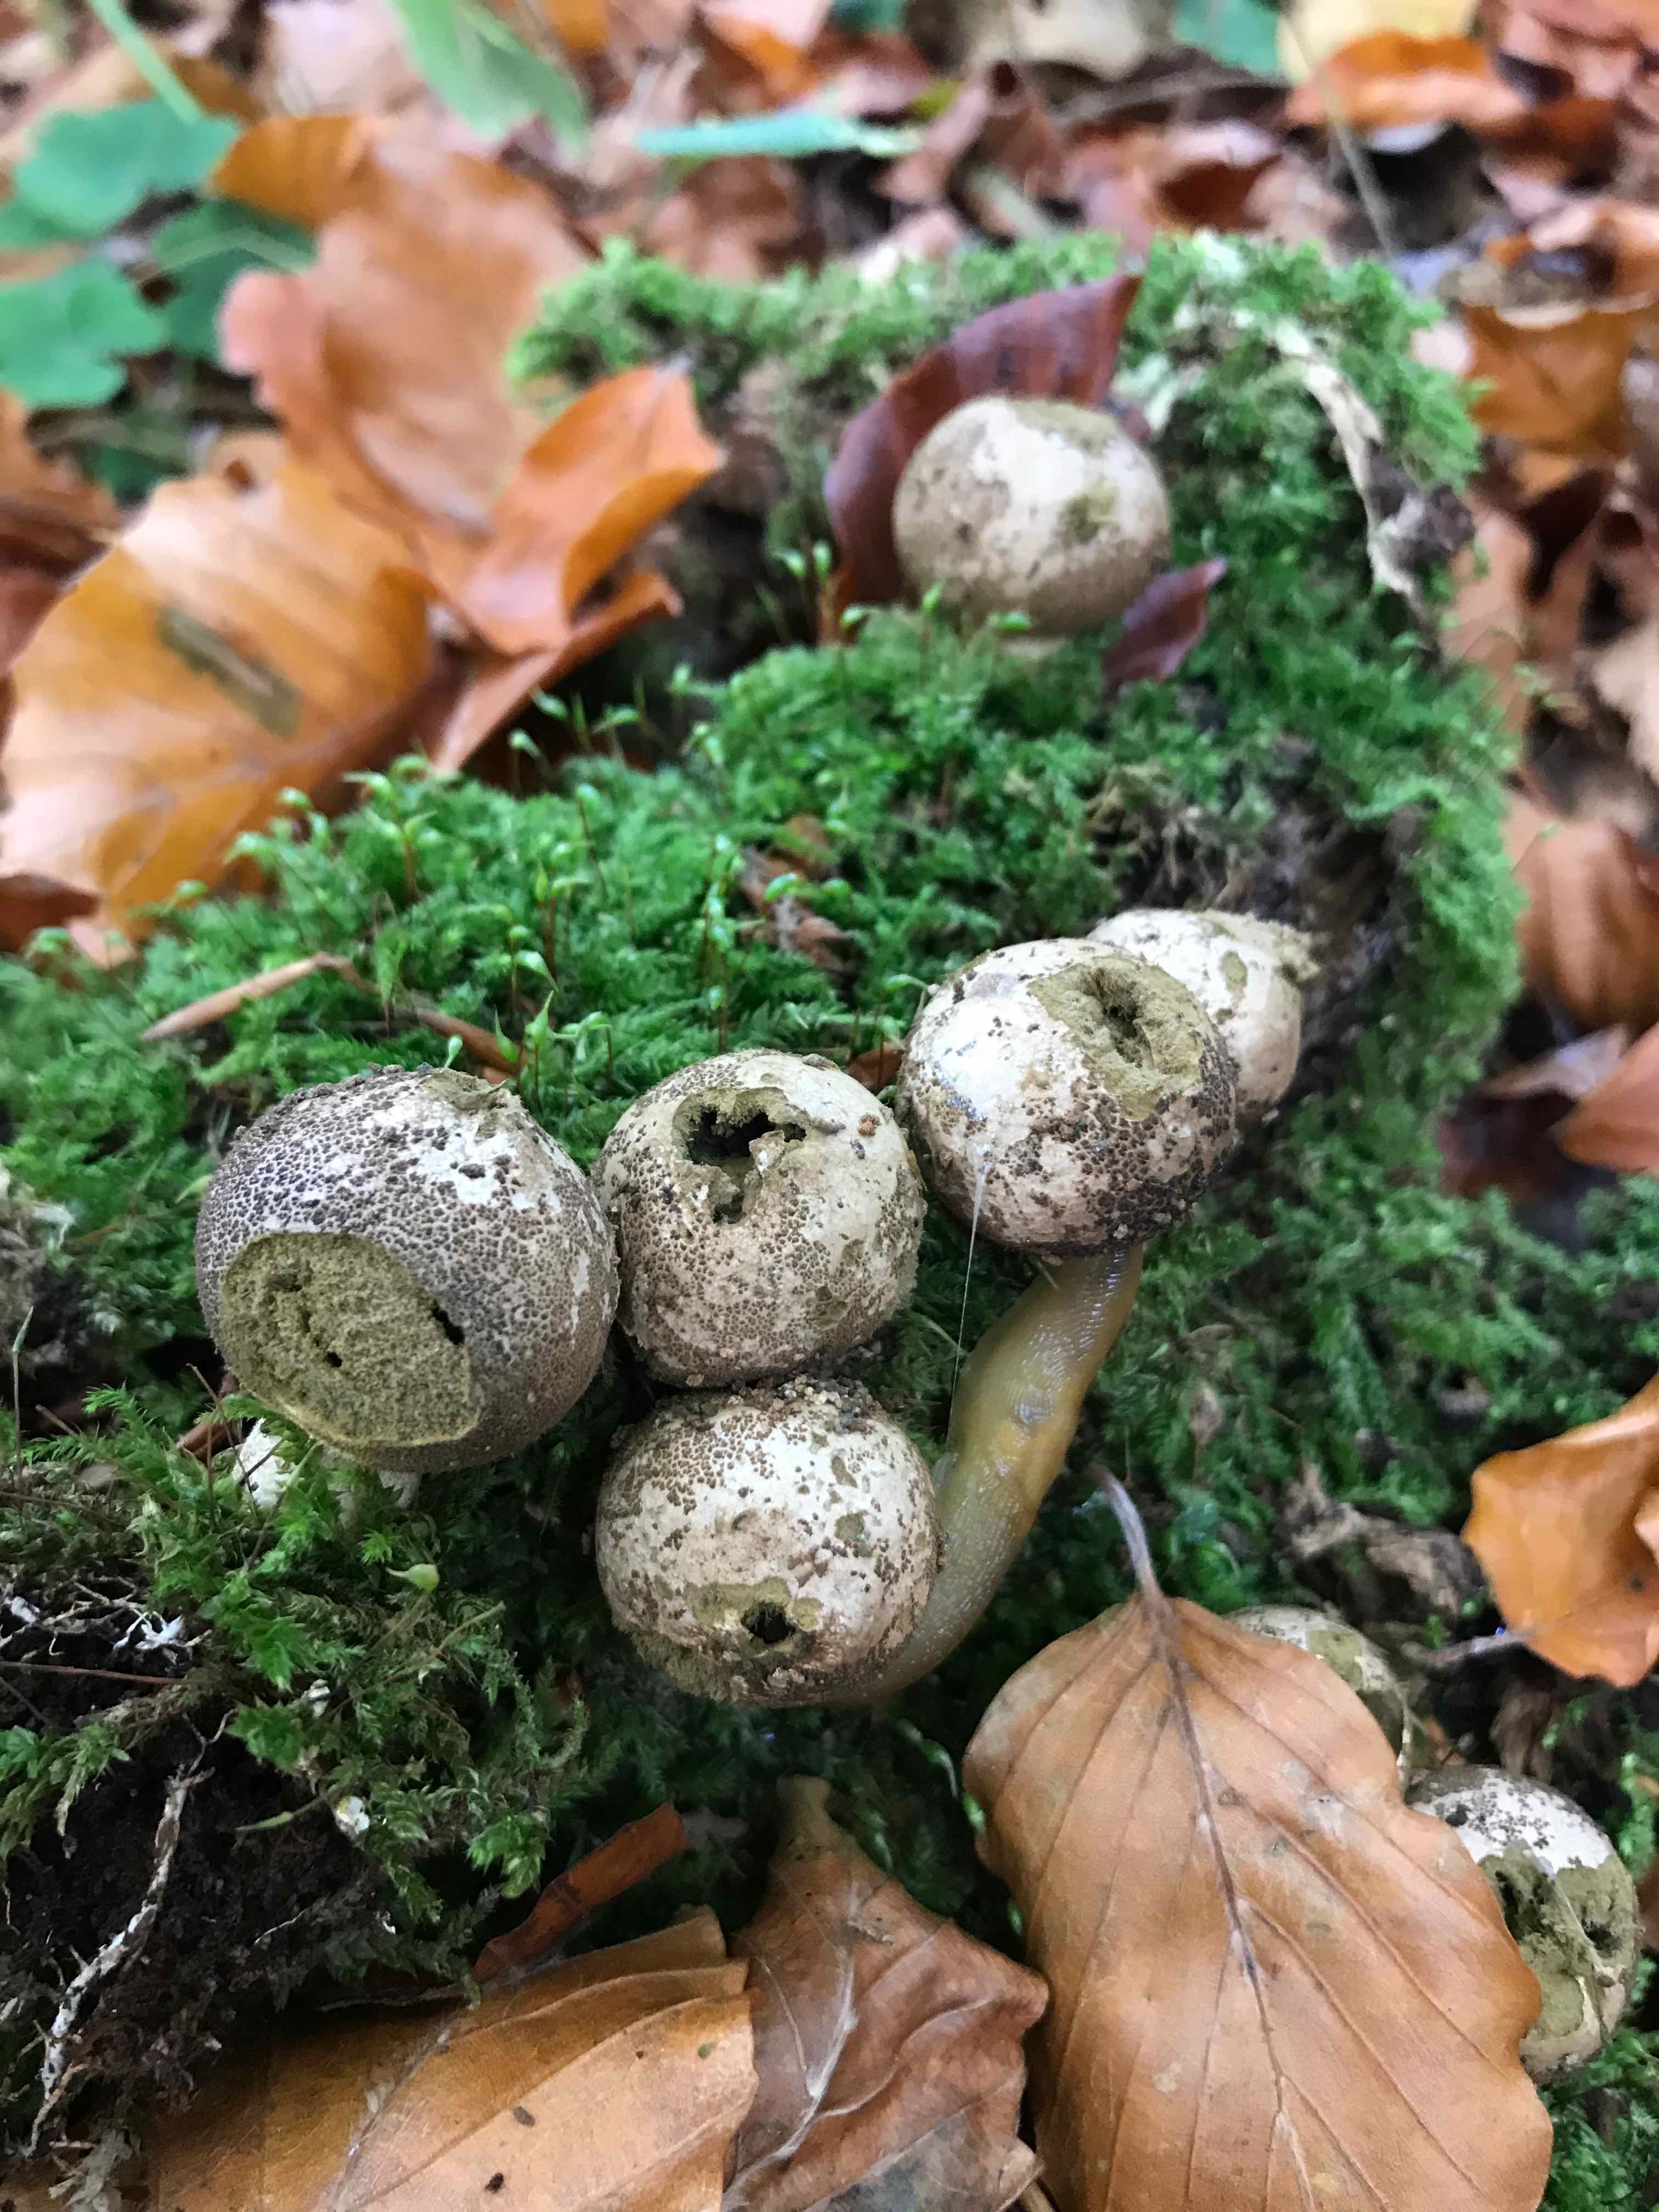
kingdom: Fungi
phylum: Basidiomycota
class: Agaricomycetes
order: Agaricales
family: Lycoperdaceae
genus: Apioperdon
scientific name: Apioperdon pyriforme
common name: pære-støvbold
